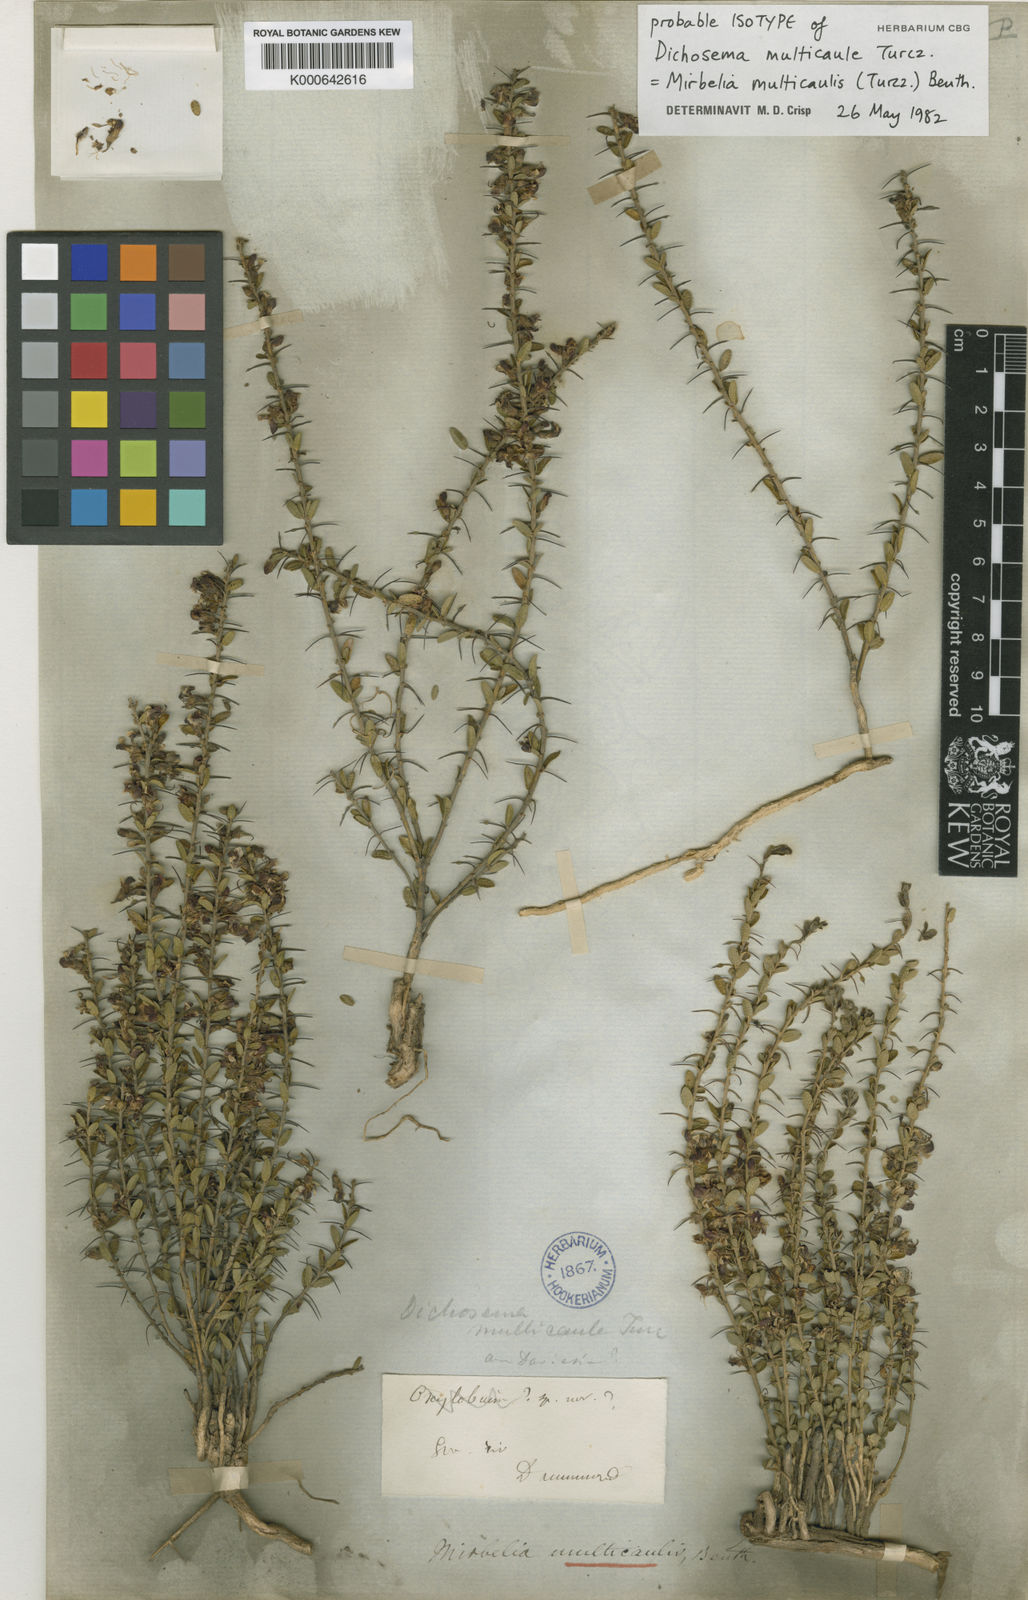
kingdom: Plantae
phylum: Tracheophyta
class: Magnoliopsida
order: Fabales
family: Fabaceae
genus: Mirbelia
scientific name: Mirbelia multicaulis
